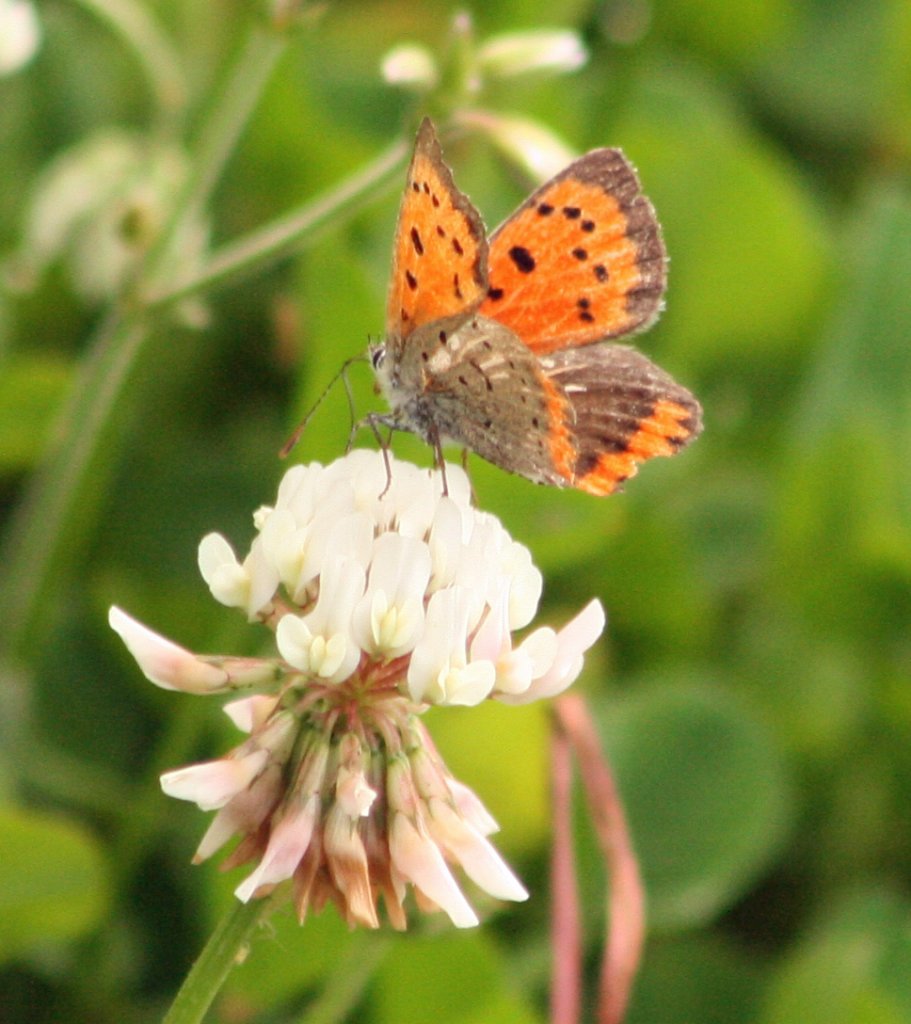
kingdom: Animalia
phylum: Arthropoda
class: Insecta
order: Lepidoptera
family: Lycaenidae
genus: Lycaena
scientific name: Lycaena phlaeas
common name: American Copper
